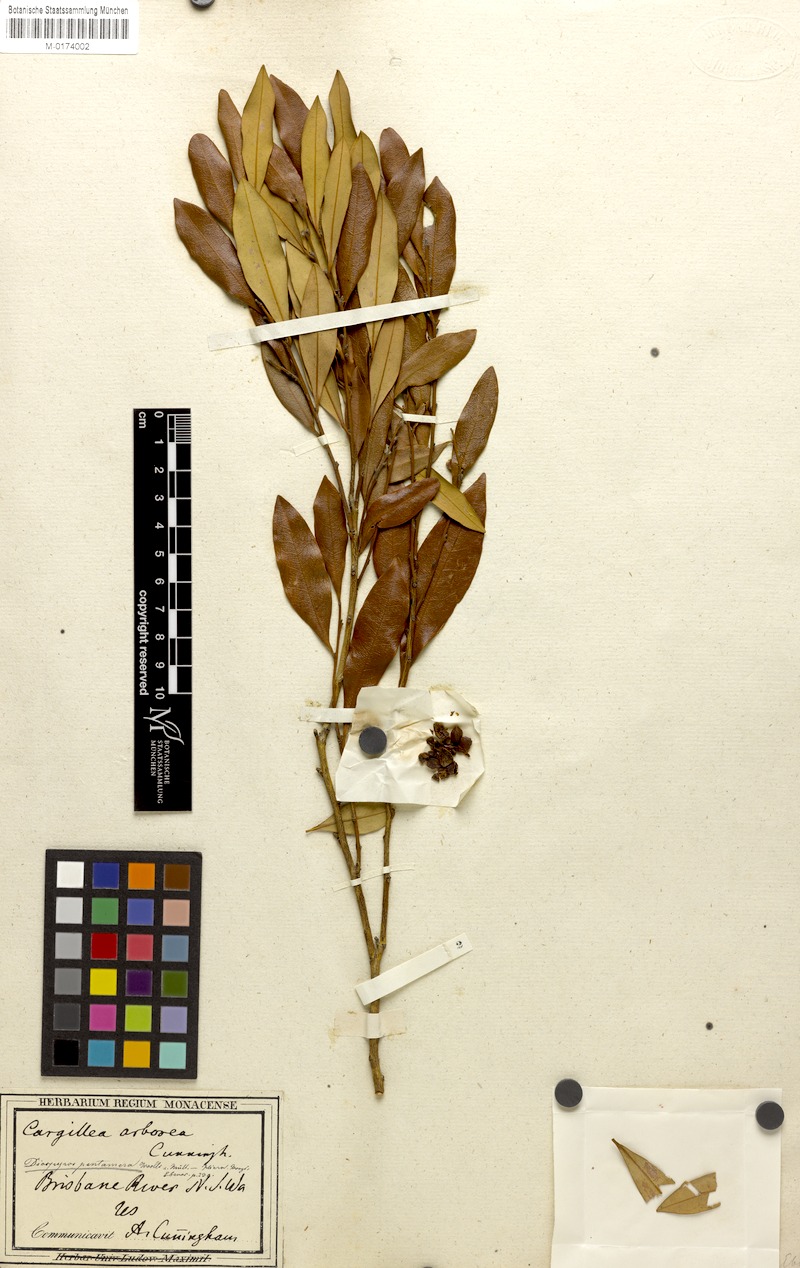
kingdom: Plantae
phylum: Tracheophyta
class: Magnoliopsida
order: Ericales
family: Ebenaceae
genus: Diospyros
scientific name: Diospyros pentamera
